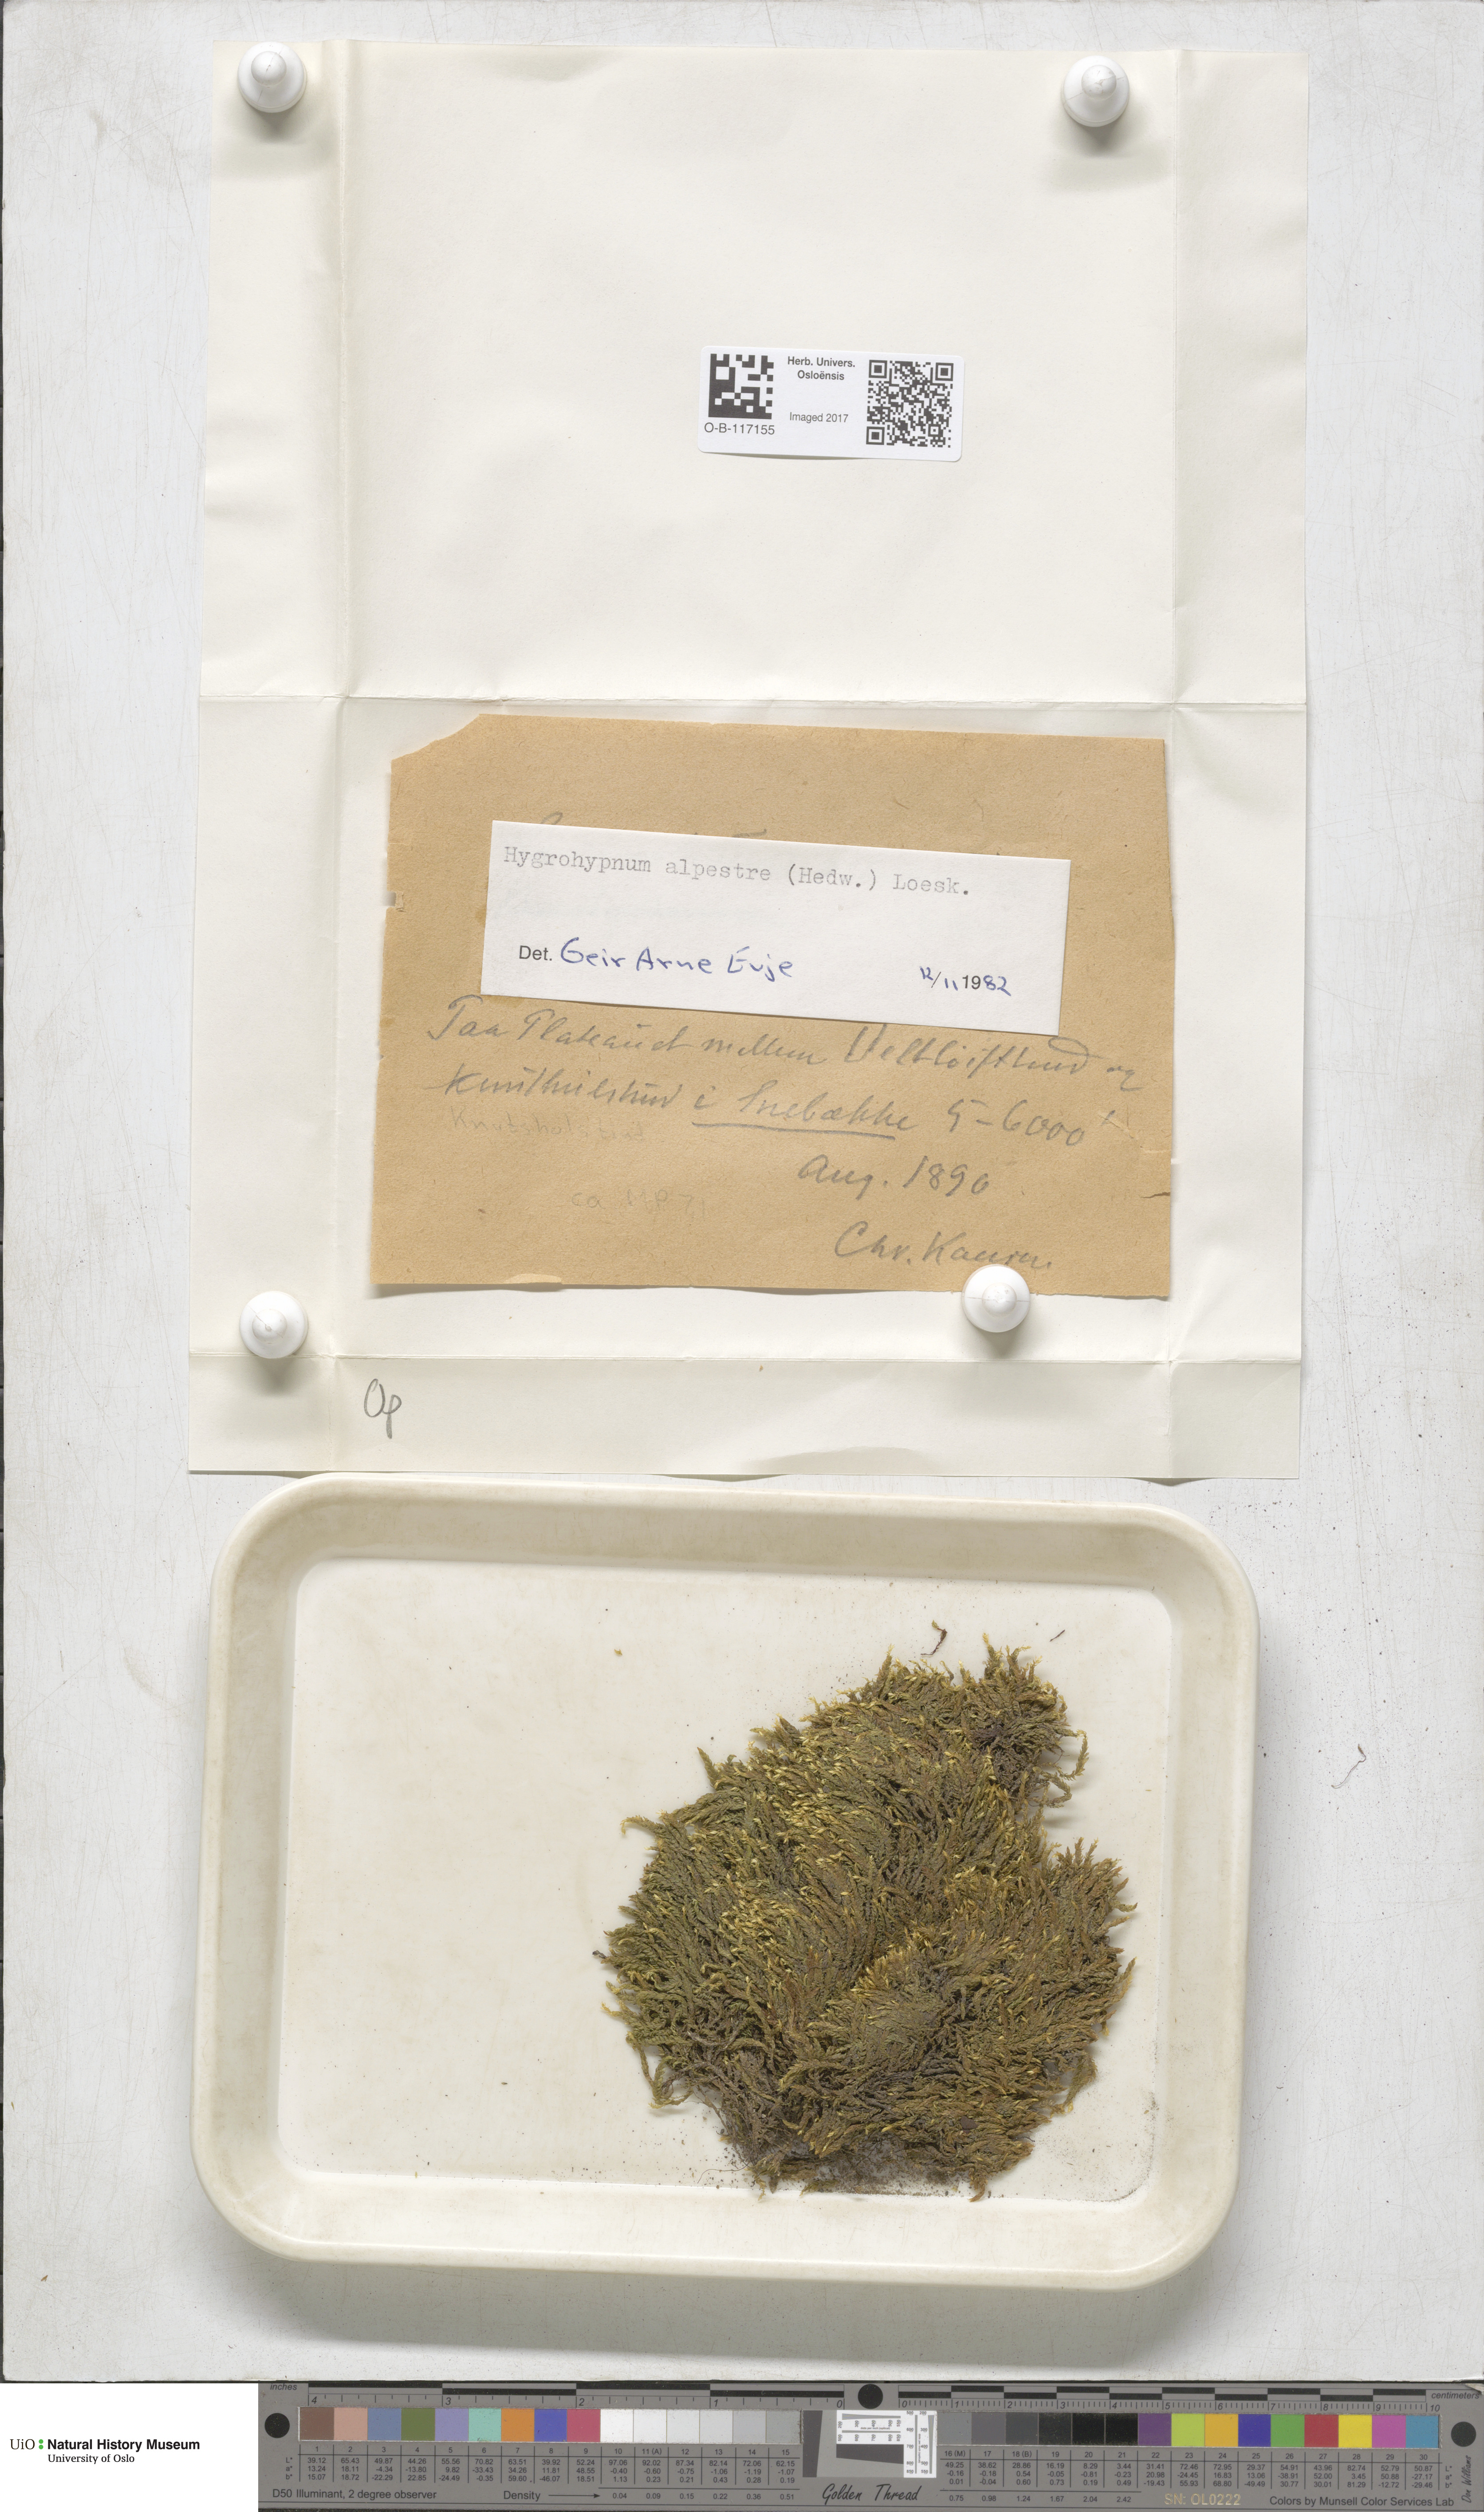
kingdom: Plantae
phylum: Bryophyta
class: Bryopsida
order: Hypnales
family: Amblystegiaceae
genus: Platyhypnum
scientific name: Platyhypnum alpestre
